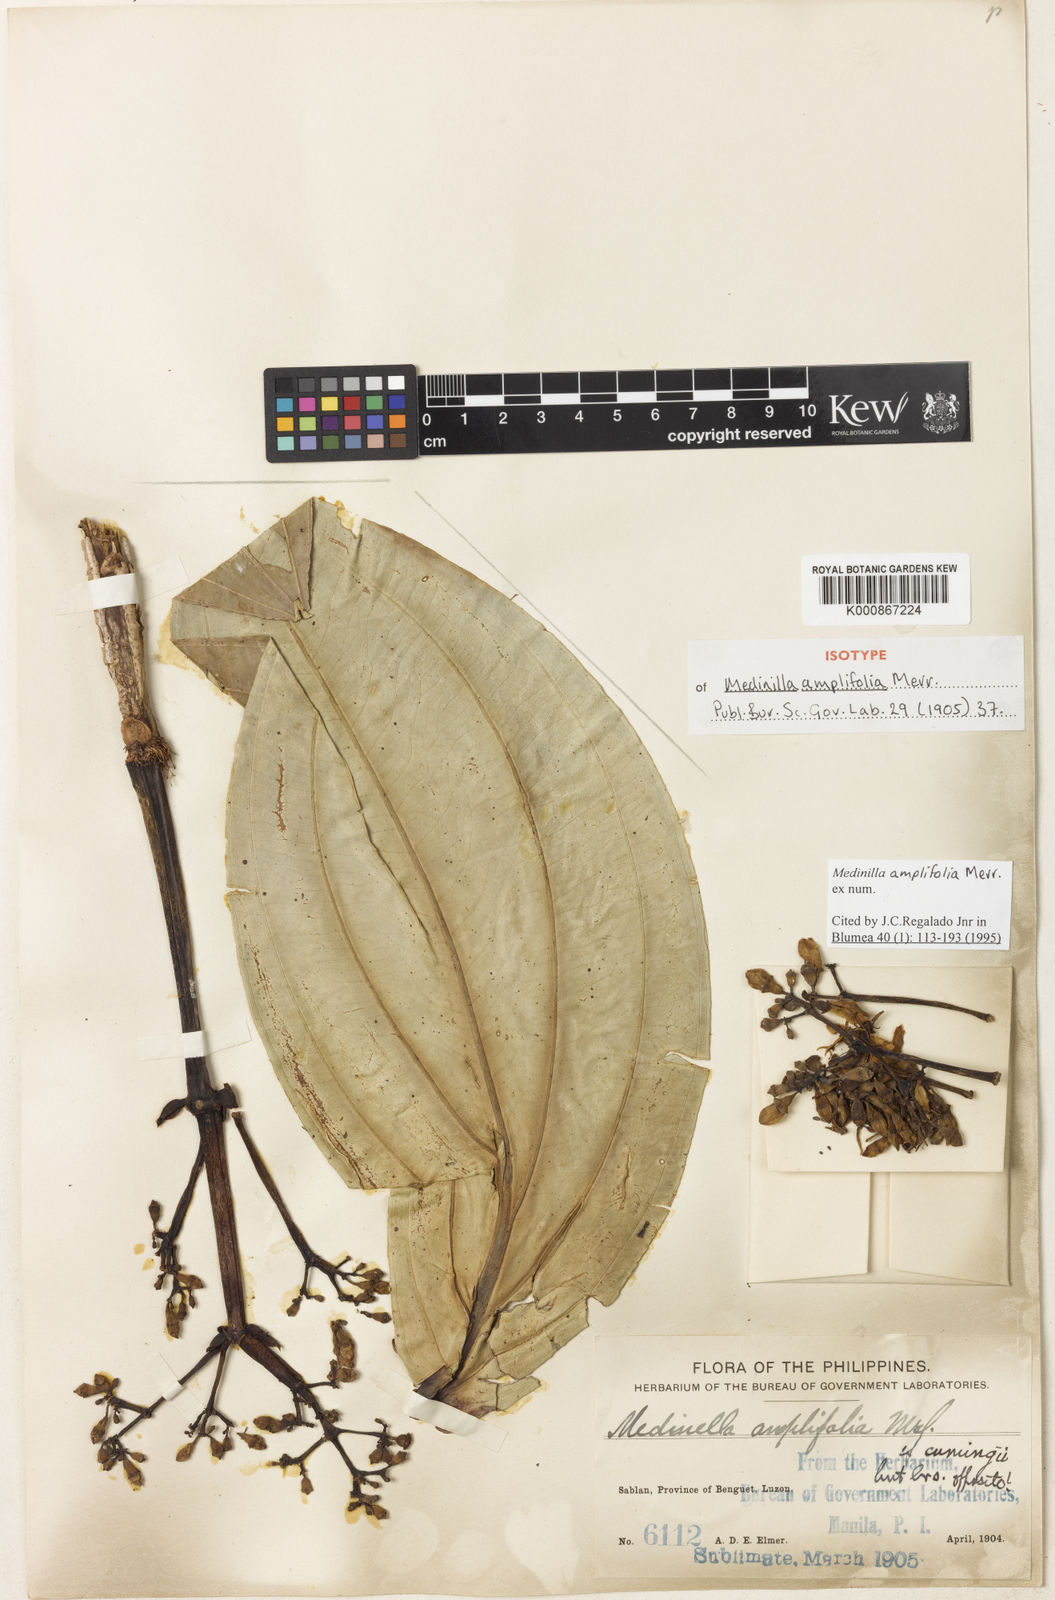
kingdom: Plantae
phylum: Tracheophyta
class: Magnoliopsida
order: Myrtales
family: Melastomataceae
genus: Medinilla
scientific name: Medinilla amplifolia
